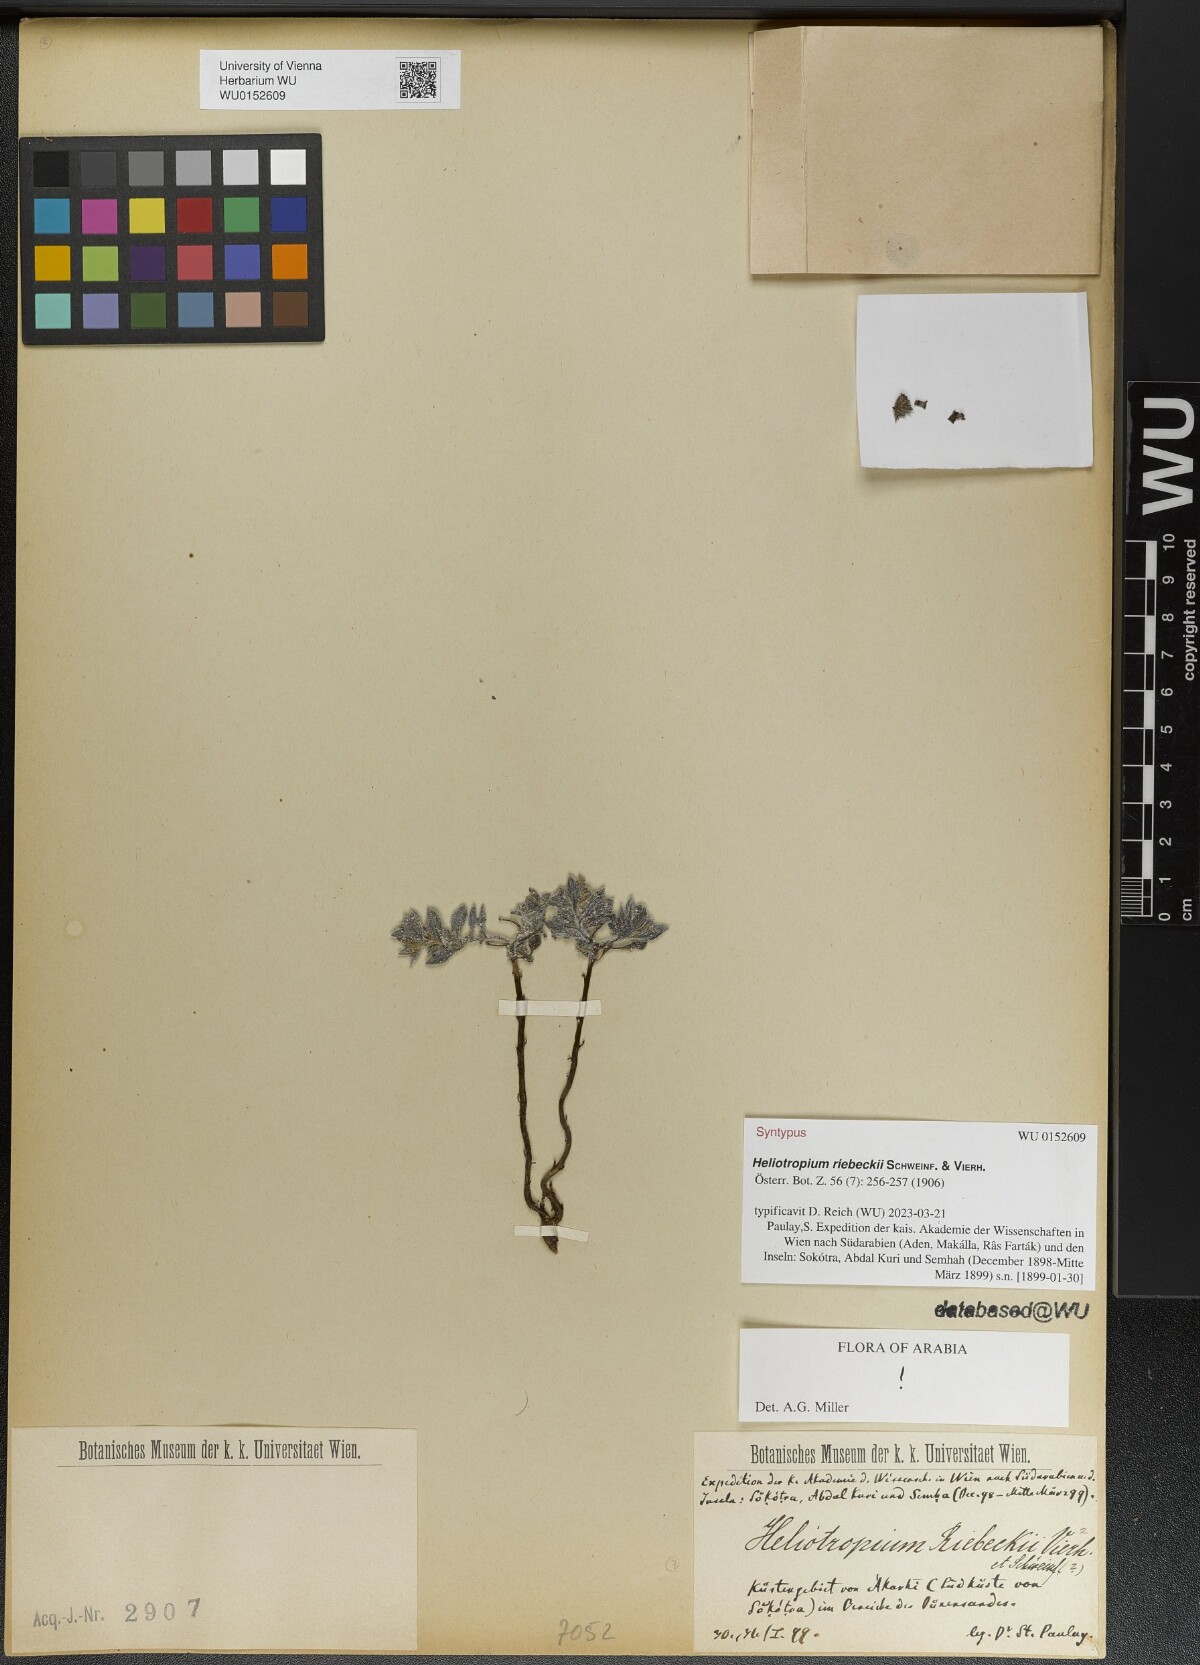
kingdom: Plantae
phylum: Tracheophyta
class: Magnoliopsida
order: Boraginales
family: Heliotropiaceae
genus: Heliotropium
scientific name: Heliotropium riebeckii
